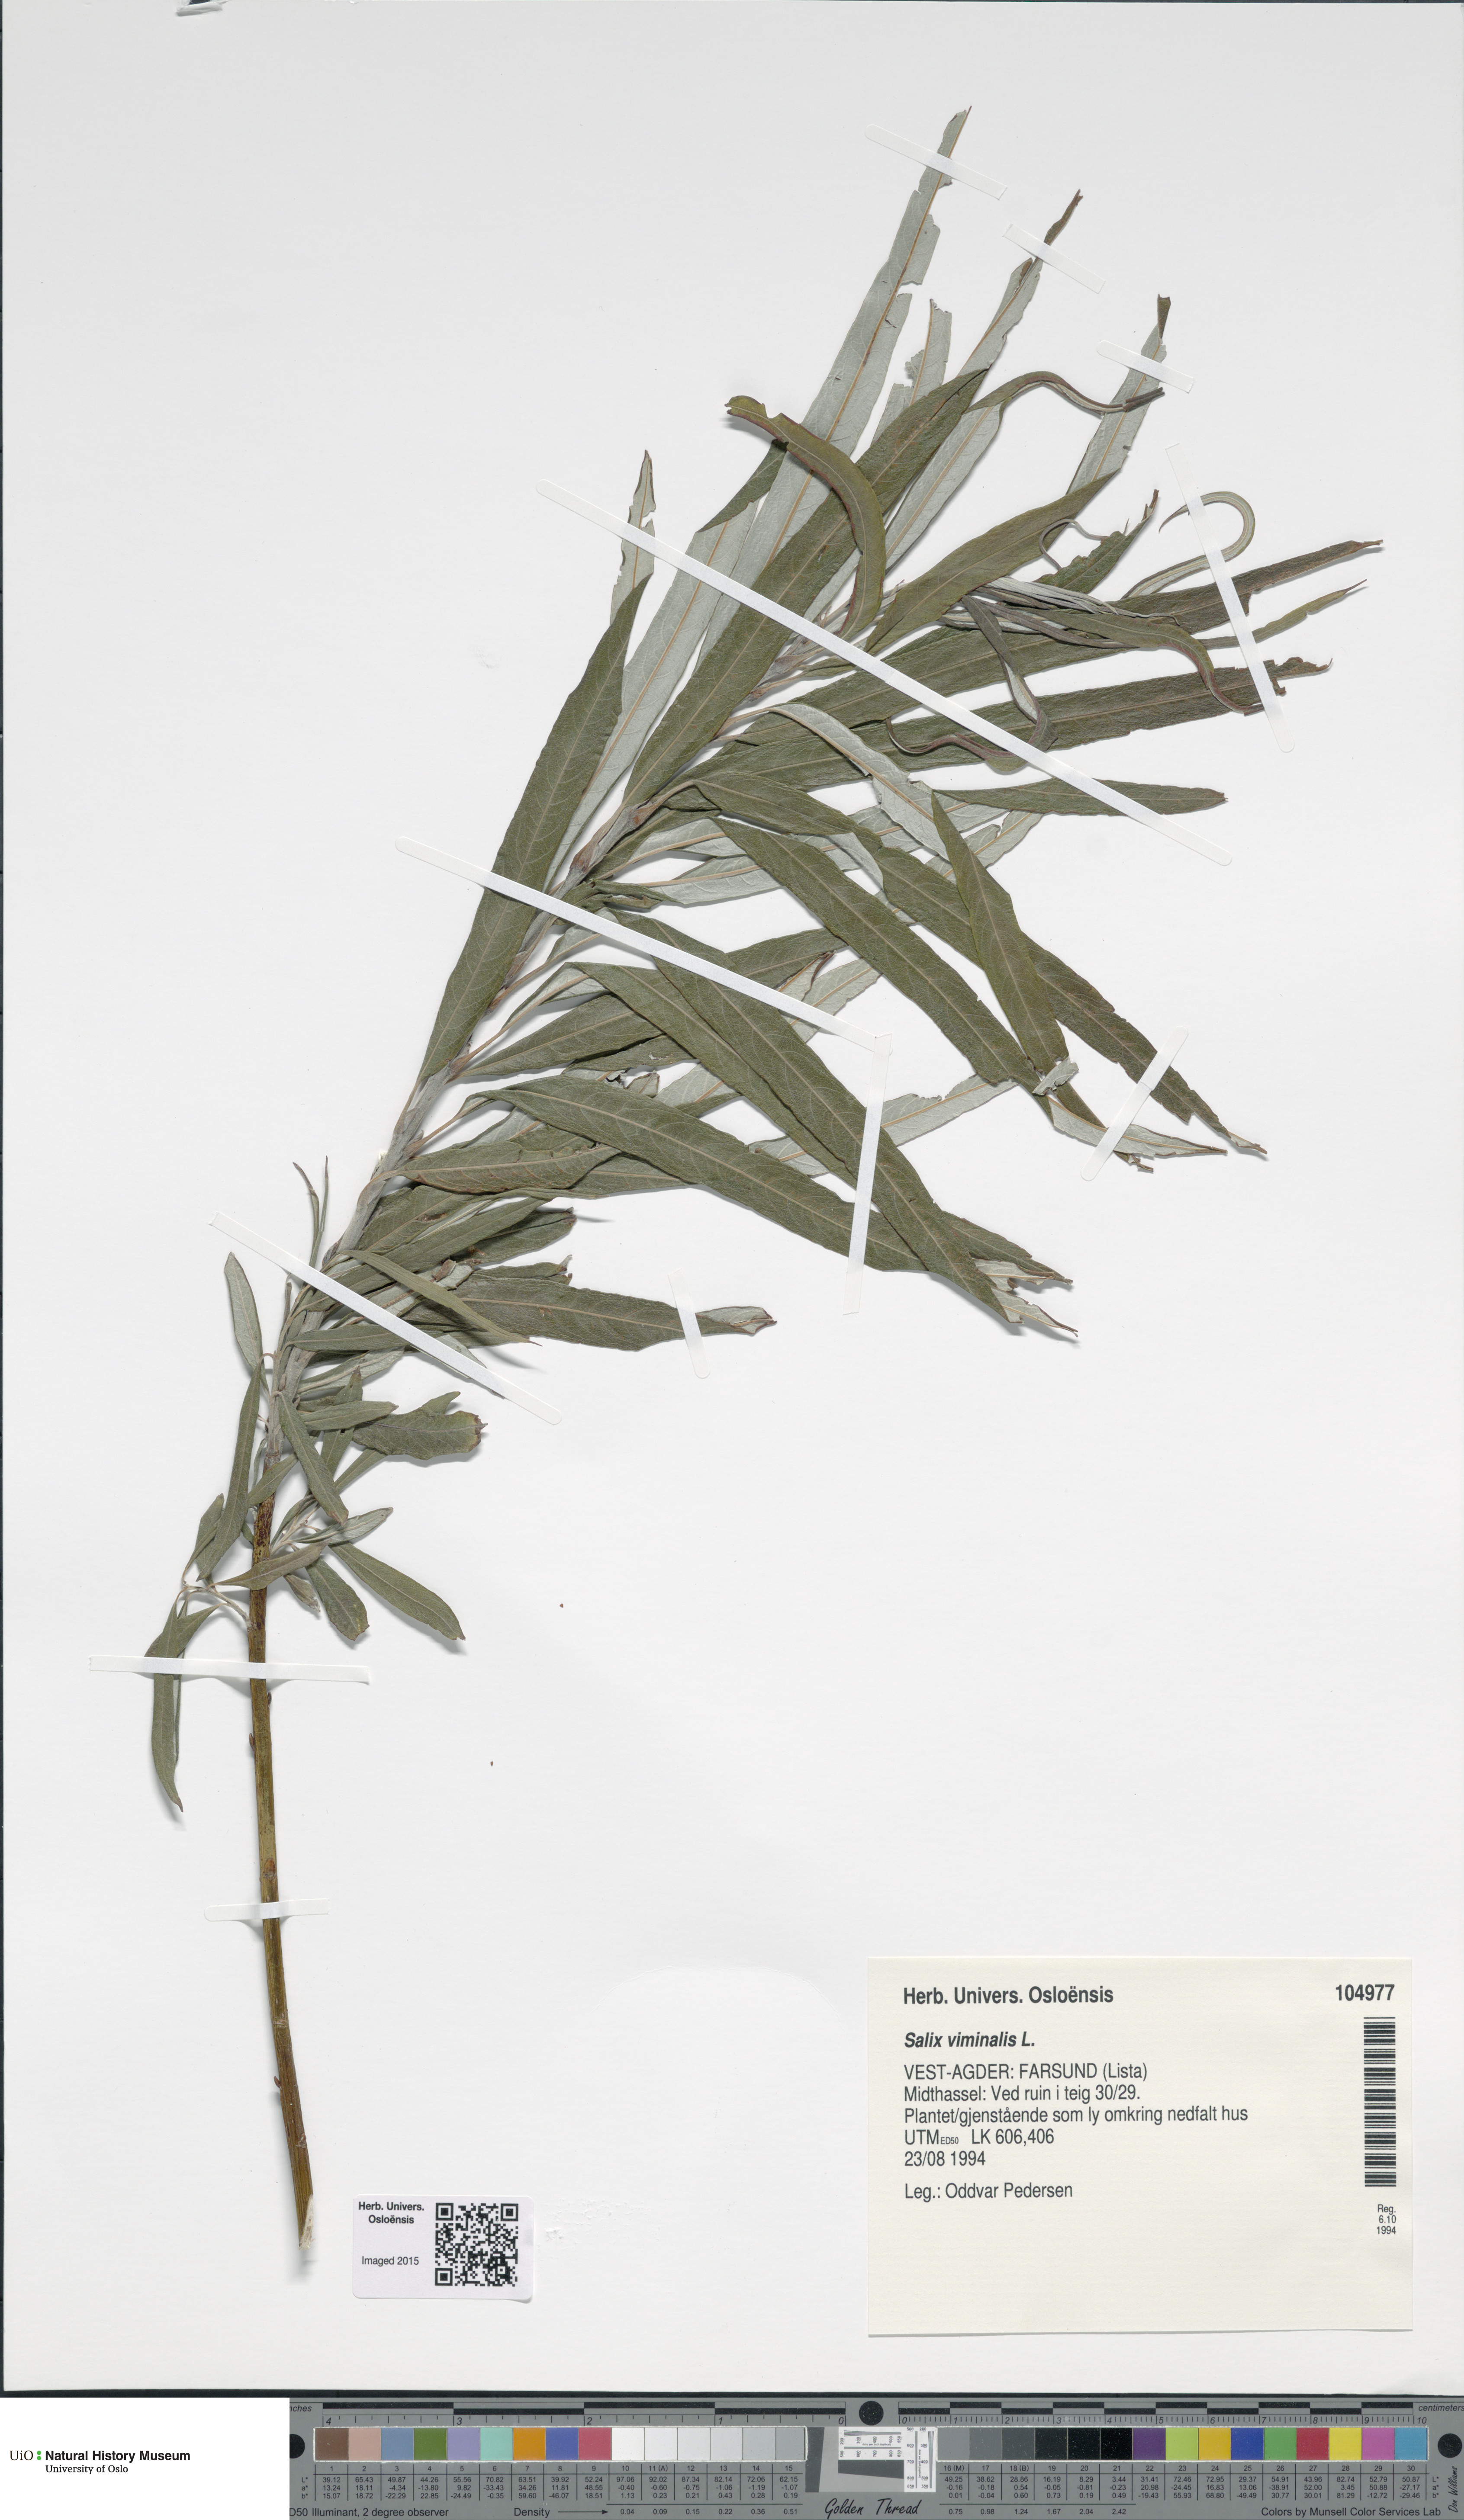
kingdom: Plantae
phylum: Tracheophyta
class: Magnoliopsida
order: Malpighiales
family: Salicaceae
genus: Salix
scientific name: Salix viminalis
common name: Osier
